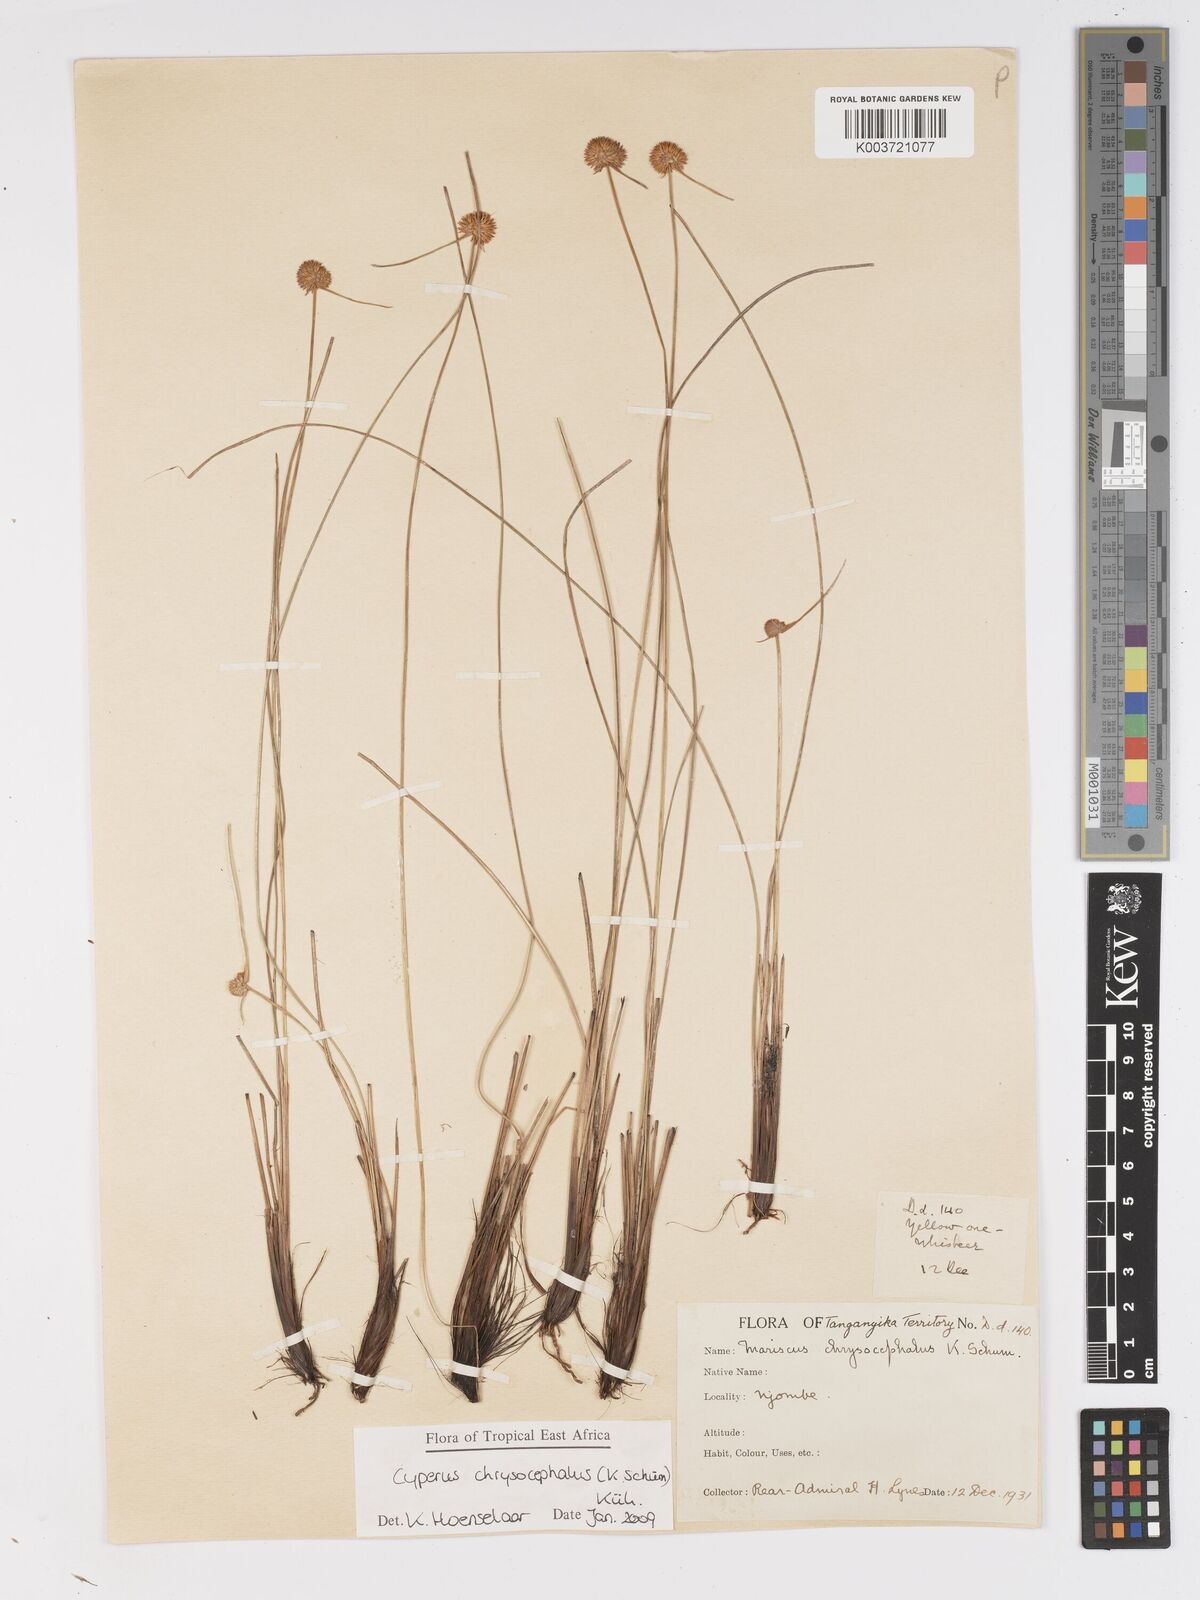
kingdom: Plantae
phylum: Tracheophyta
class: Liliopsida
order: Poales
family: Cyperaceae
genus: Cyperus
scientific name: Cyperus chrysocephalus
